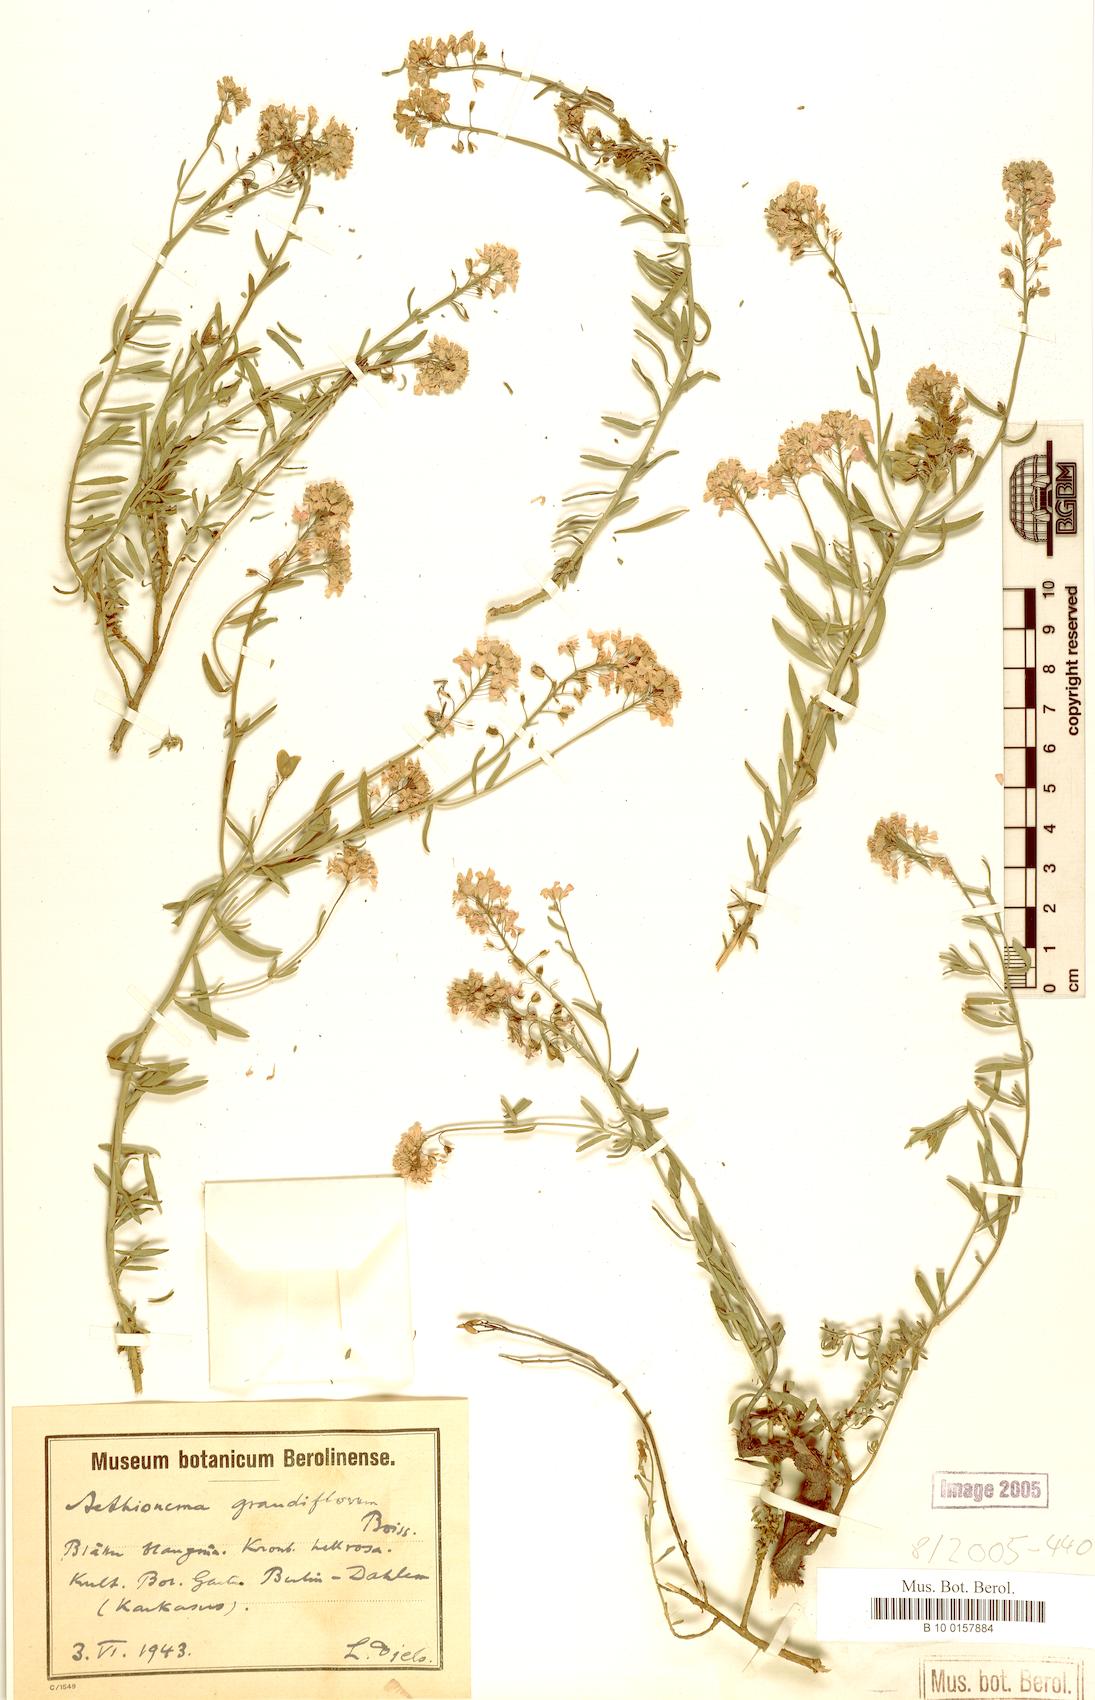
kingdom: Plantae
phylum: Tracheophyta
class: Magnoliopsida
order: Brassicales
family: Brassicaceae
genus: Aethionema
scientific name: Aethionema grandiflorum
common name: Persian stonecress
